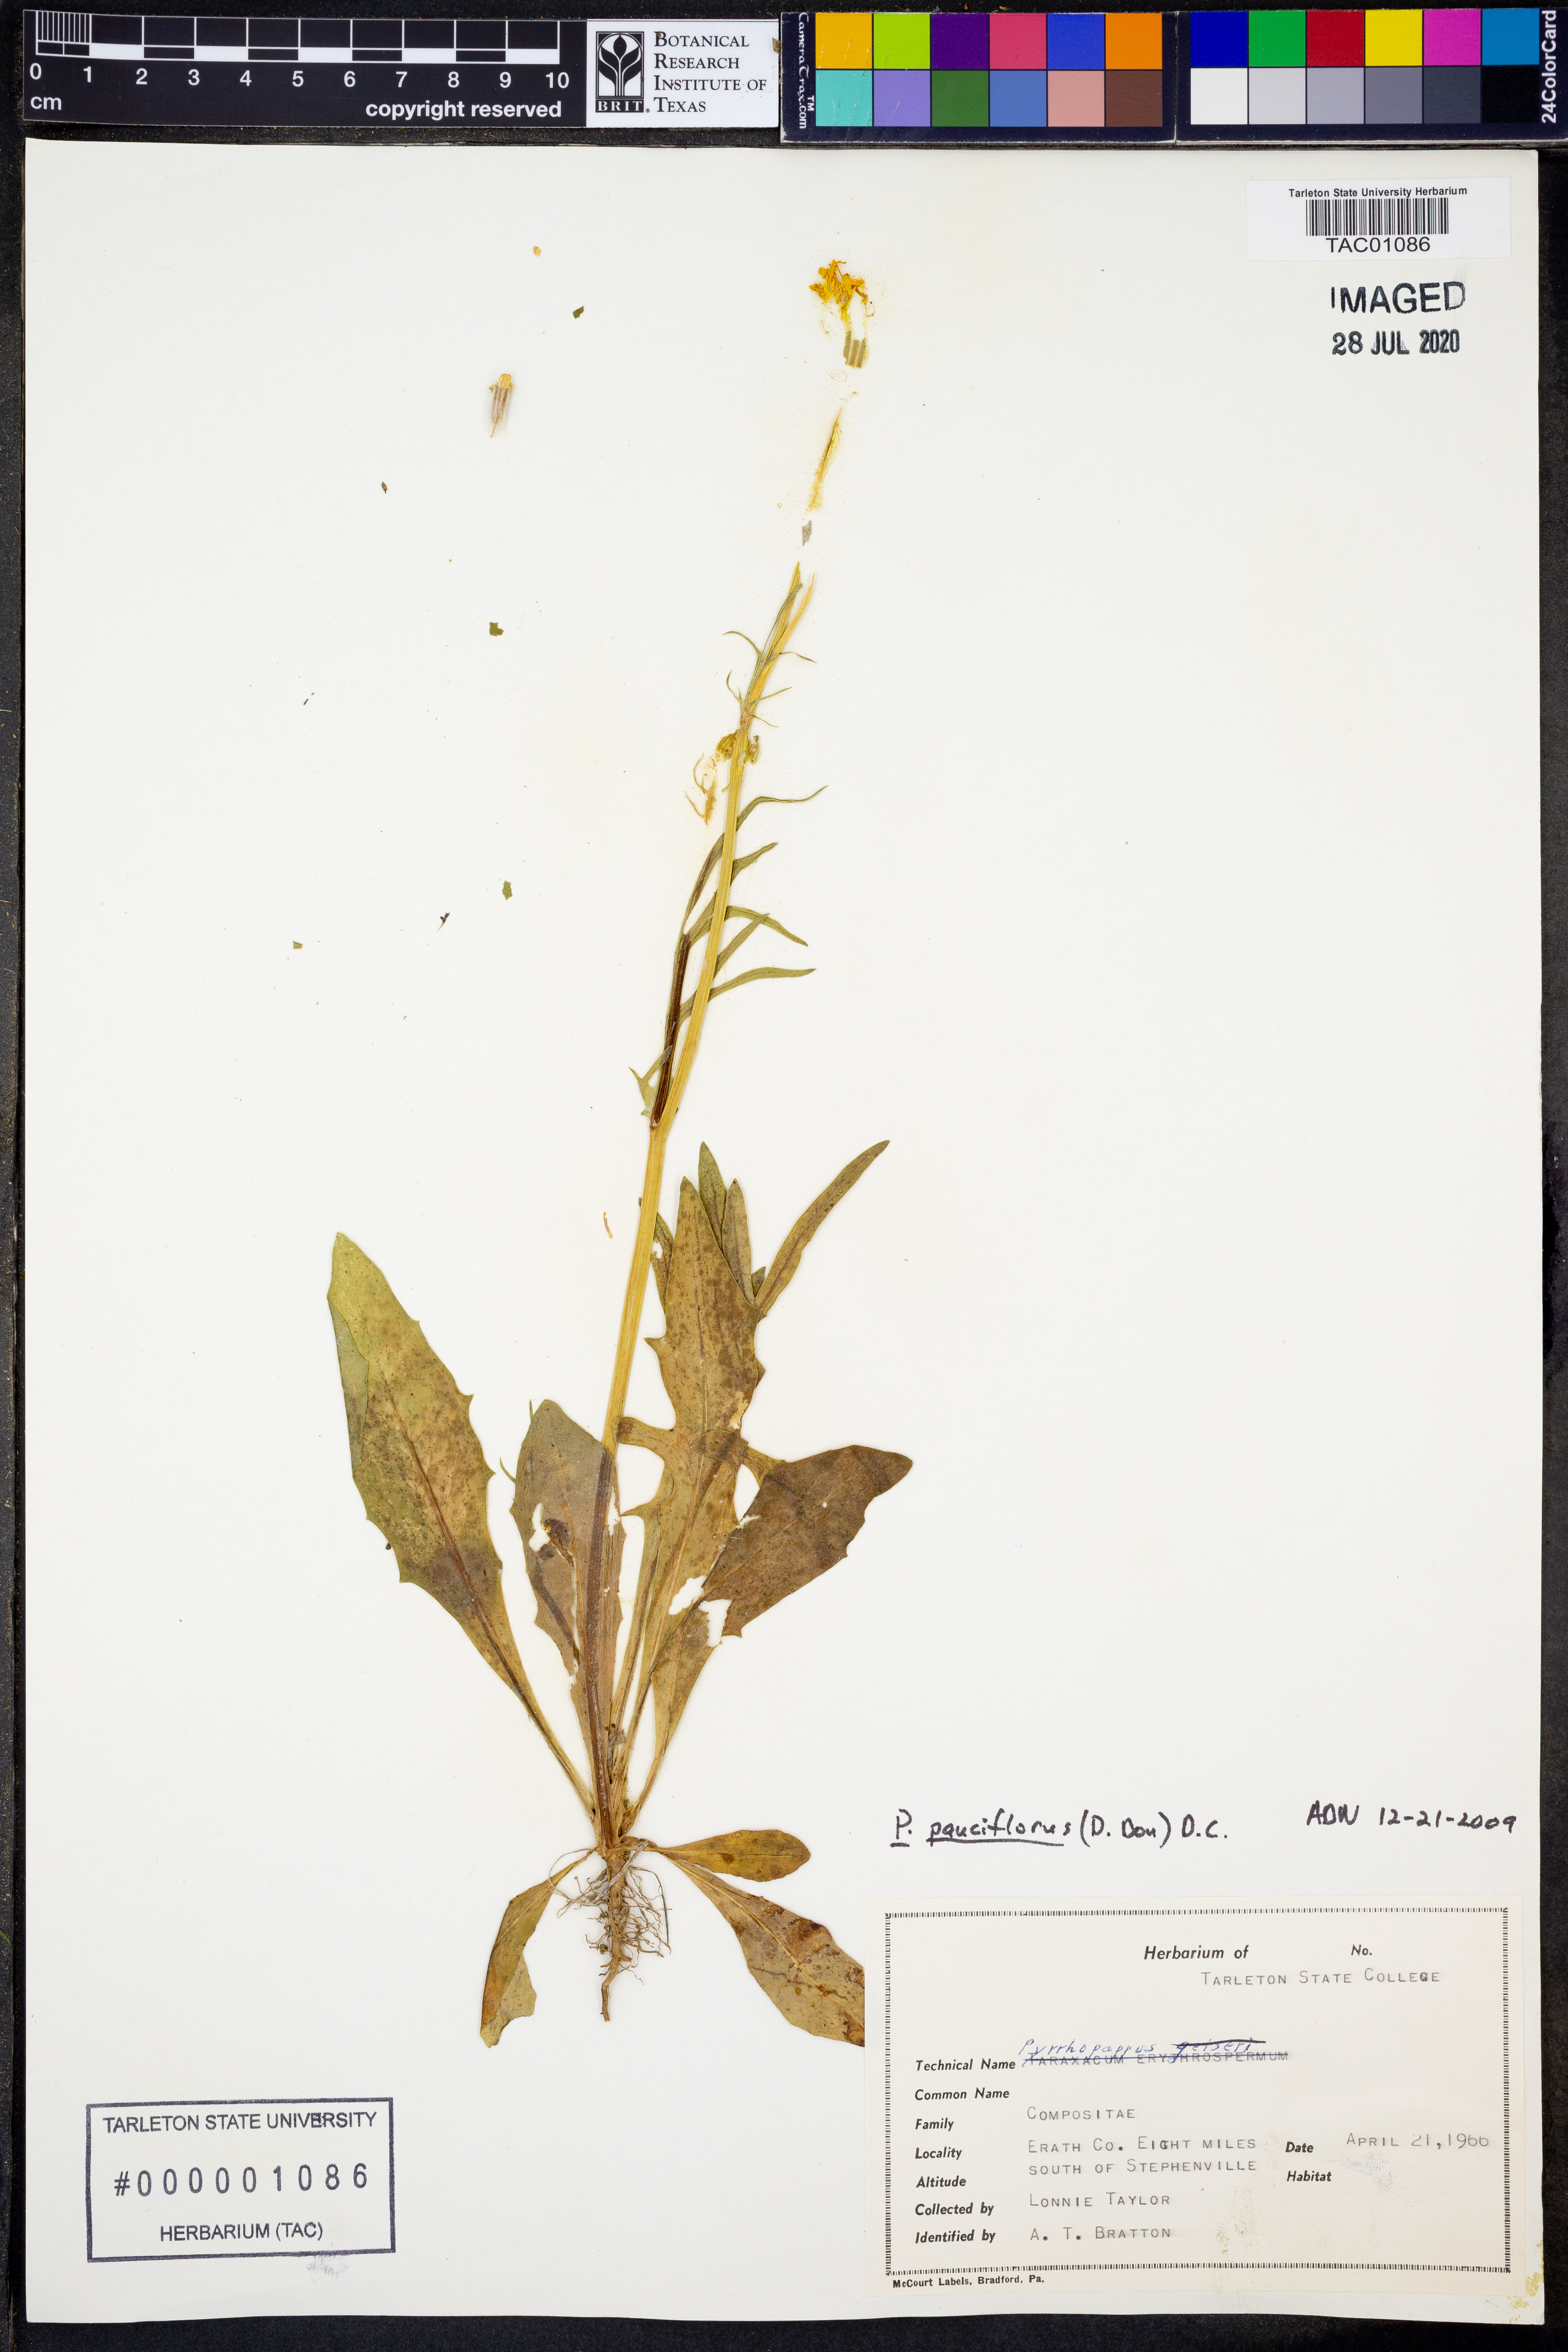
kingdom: Plantae
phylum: Tracheophyta
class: Magnoliopsida
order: Asterales
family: Asteraceae
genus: Pyrrhopappus
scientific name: Pyrrhopappus pauciflorus
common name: Texas false dandelion
